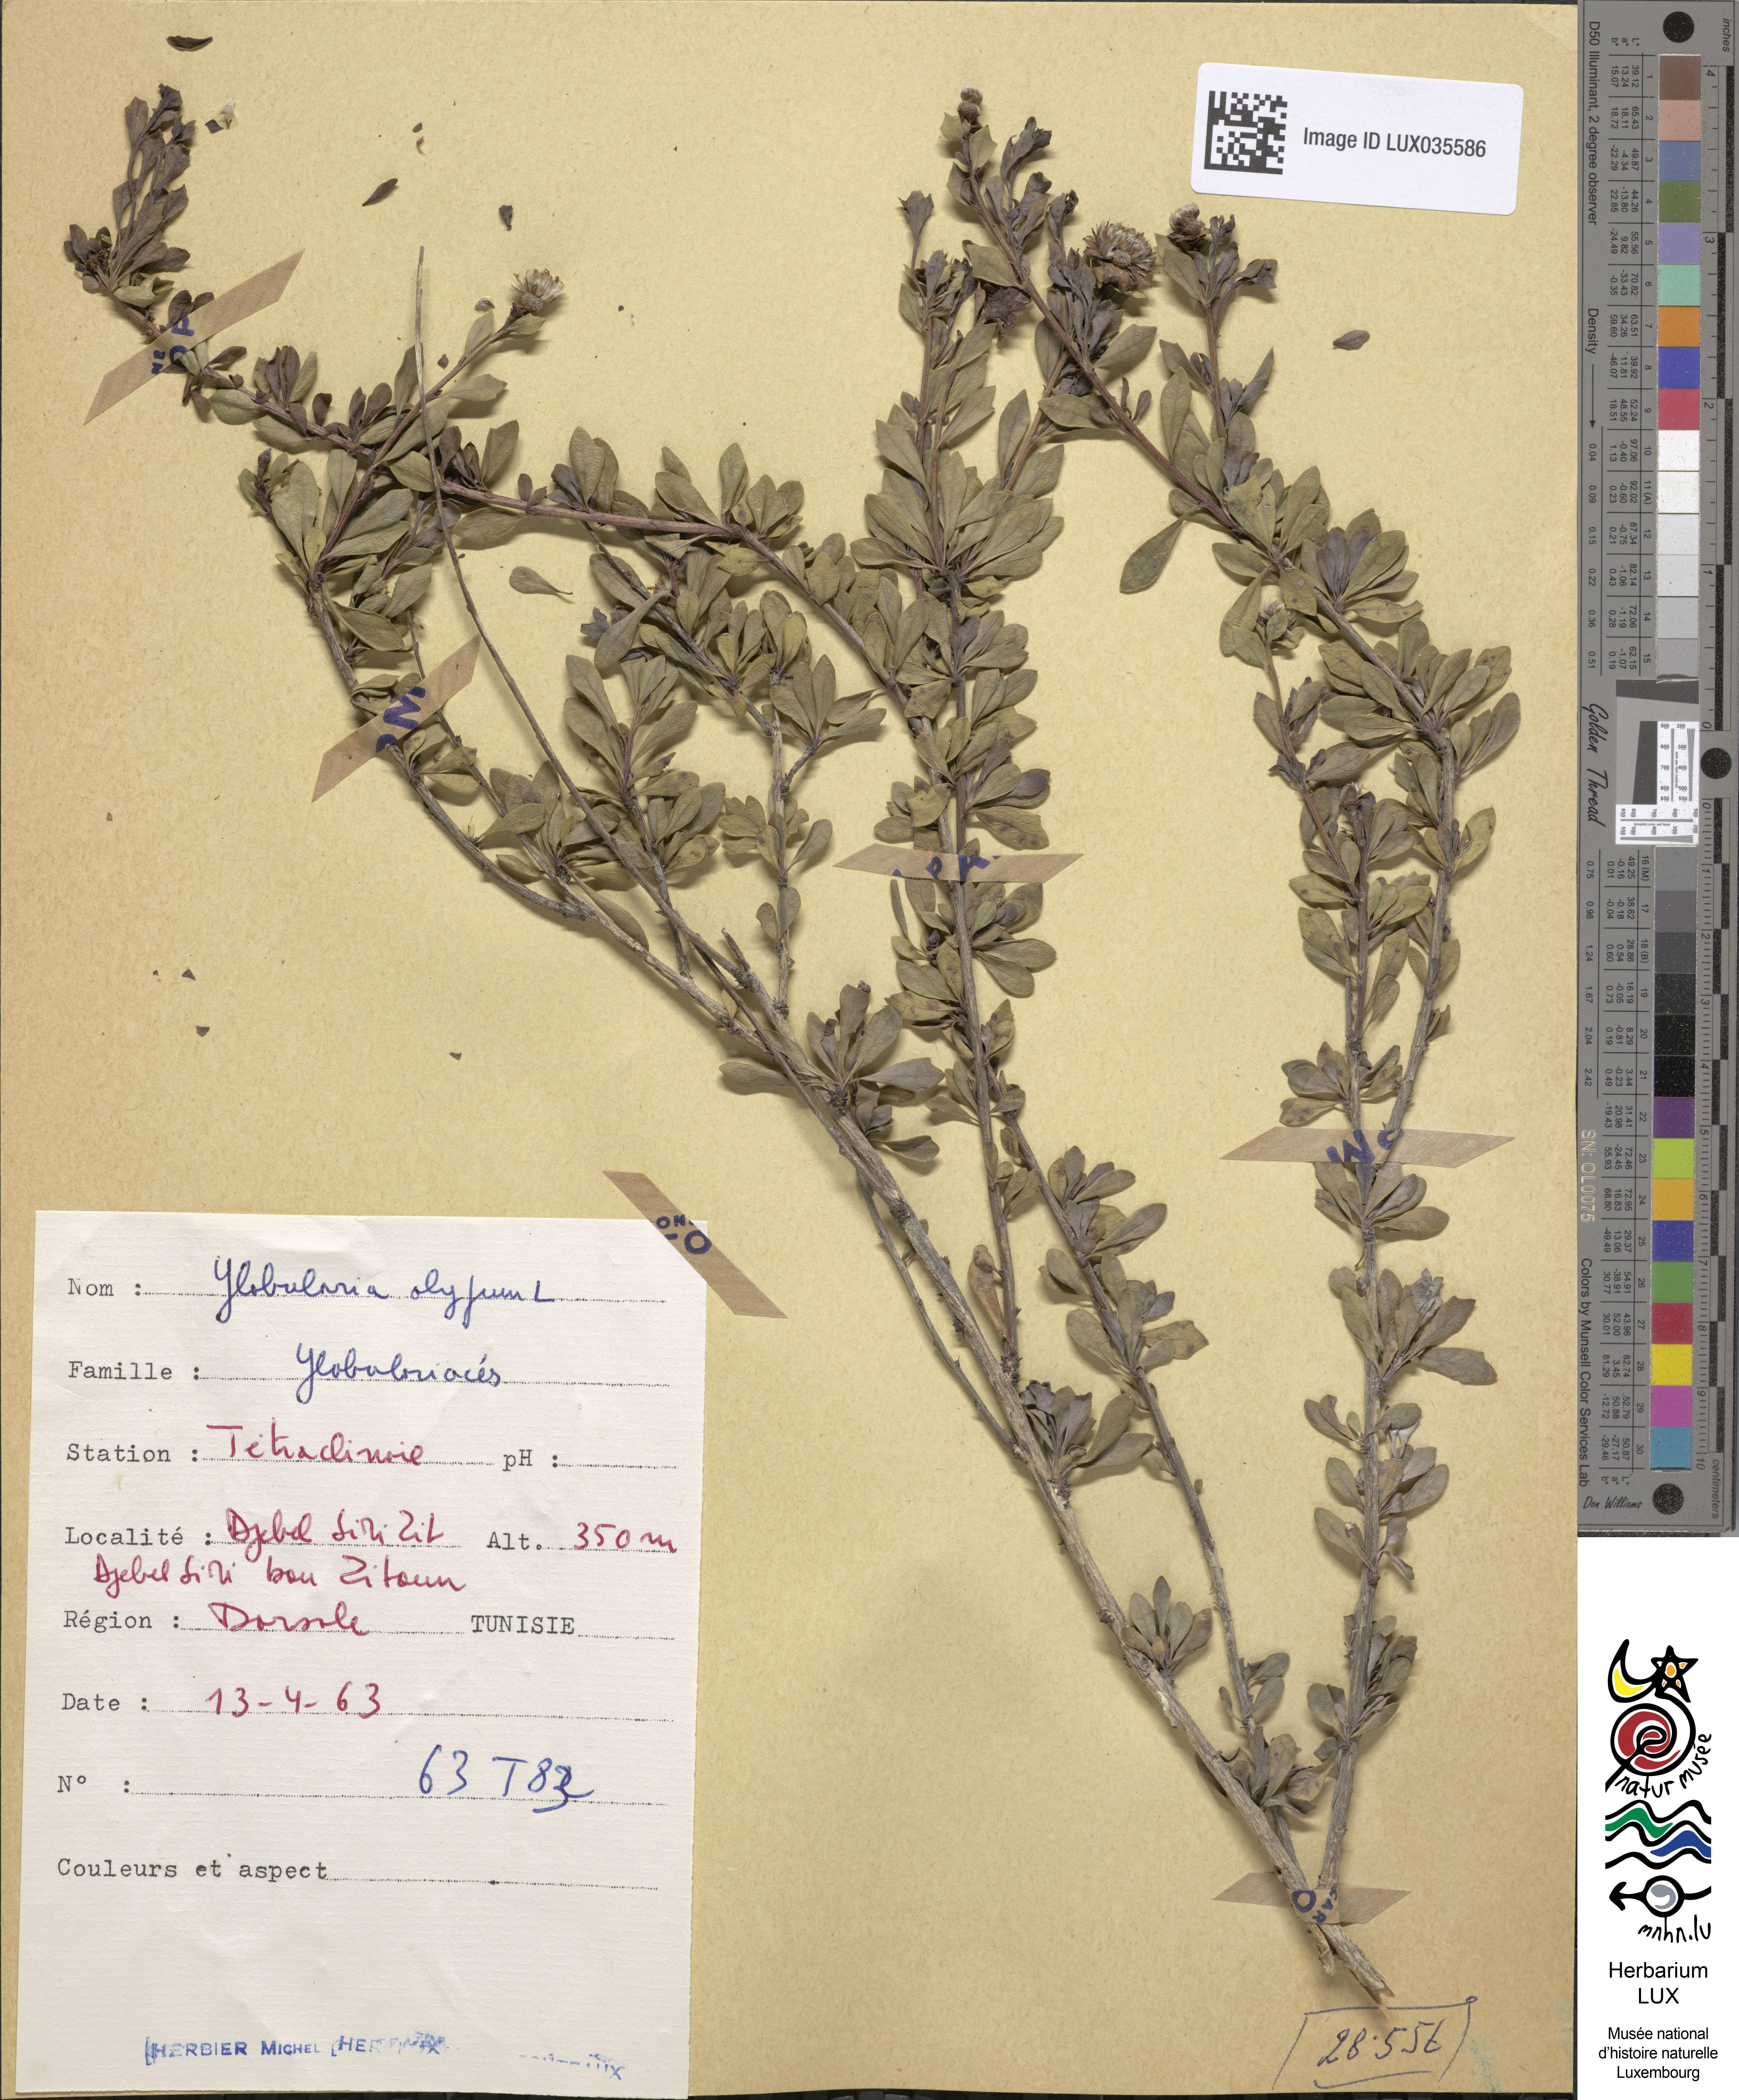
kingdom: Plantae
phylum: Tracheophyta
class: Magnoliopsida
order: Lamiales
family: Plantaginaceae
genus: Globularia
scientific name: Globularia alypum
